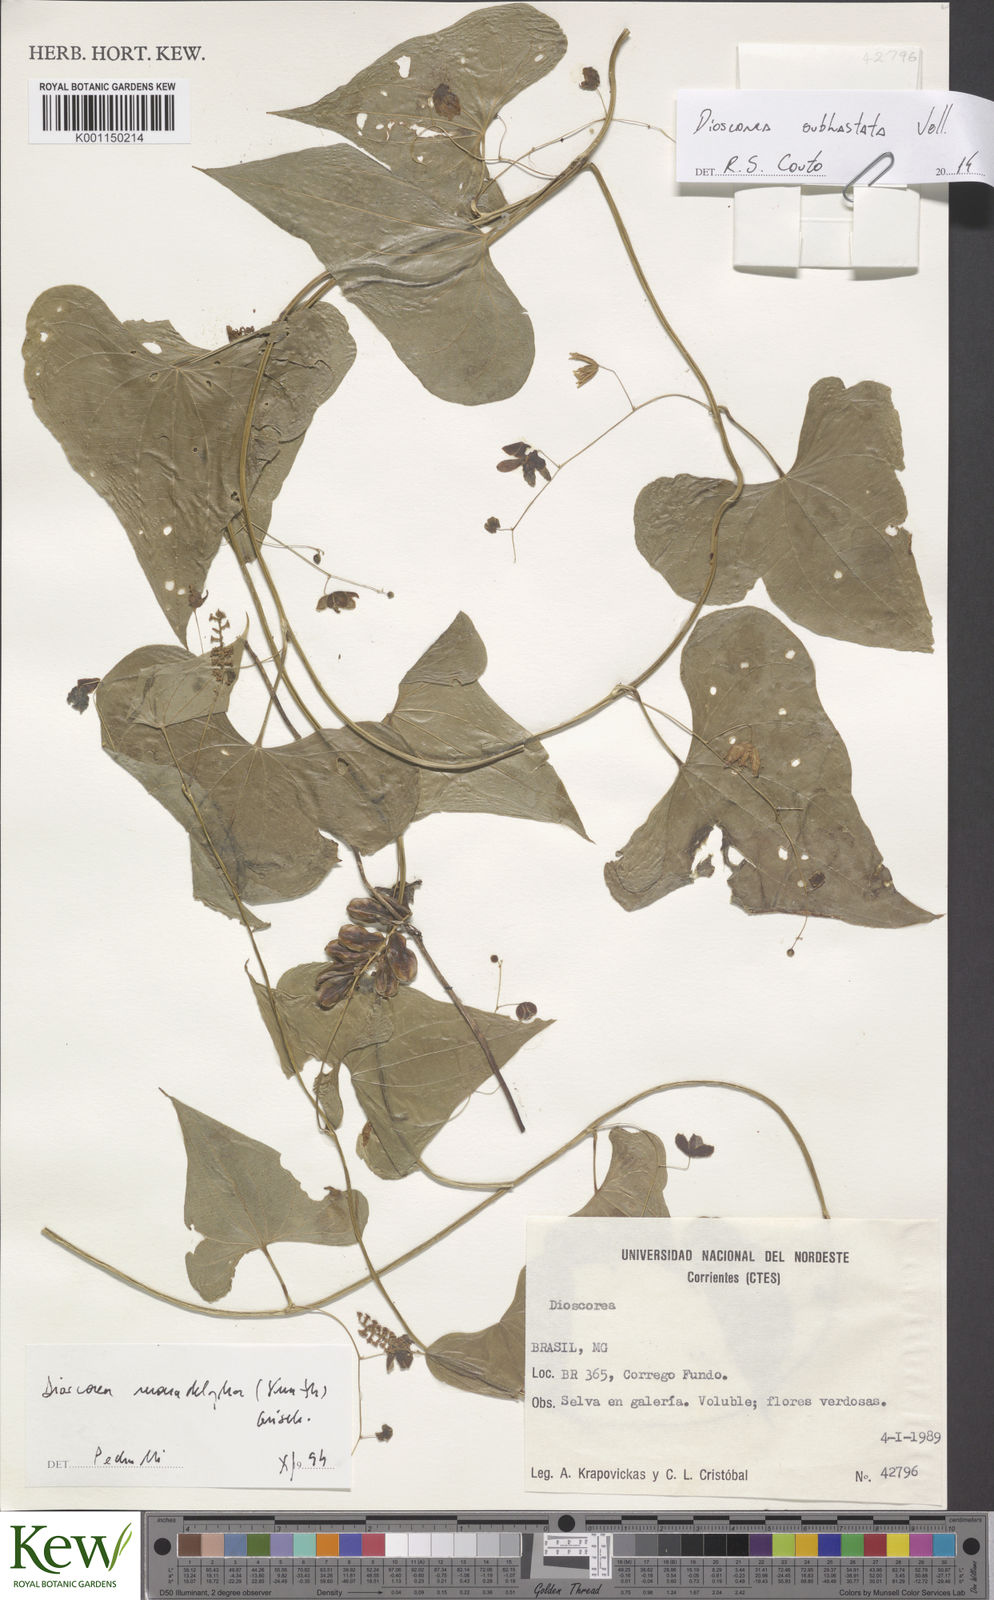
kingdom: Plantae
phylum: Tracheophyta
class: Liliopsida
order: Dioscoreales
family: Dioscoreaceae
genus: Dioscorea
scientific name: Dioscorea subhastata
